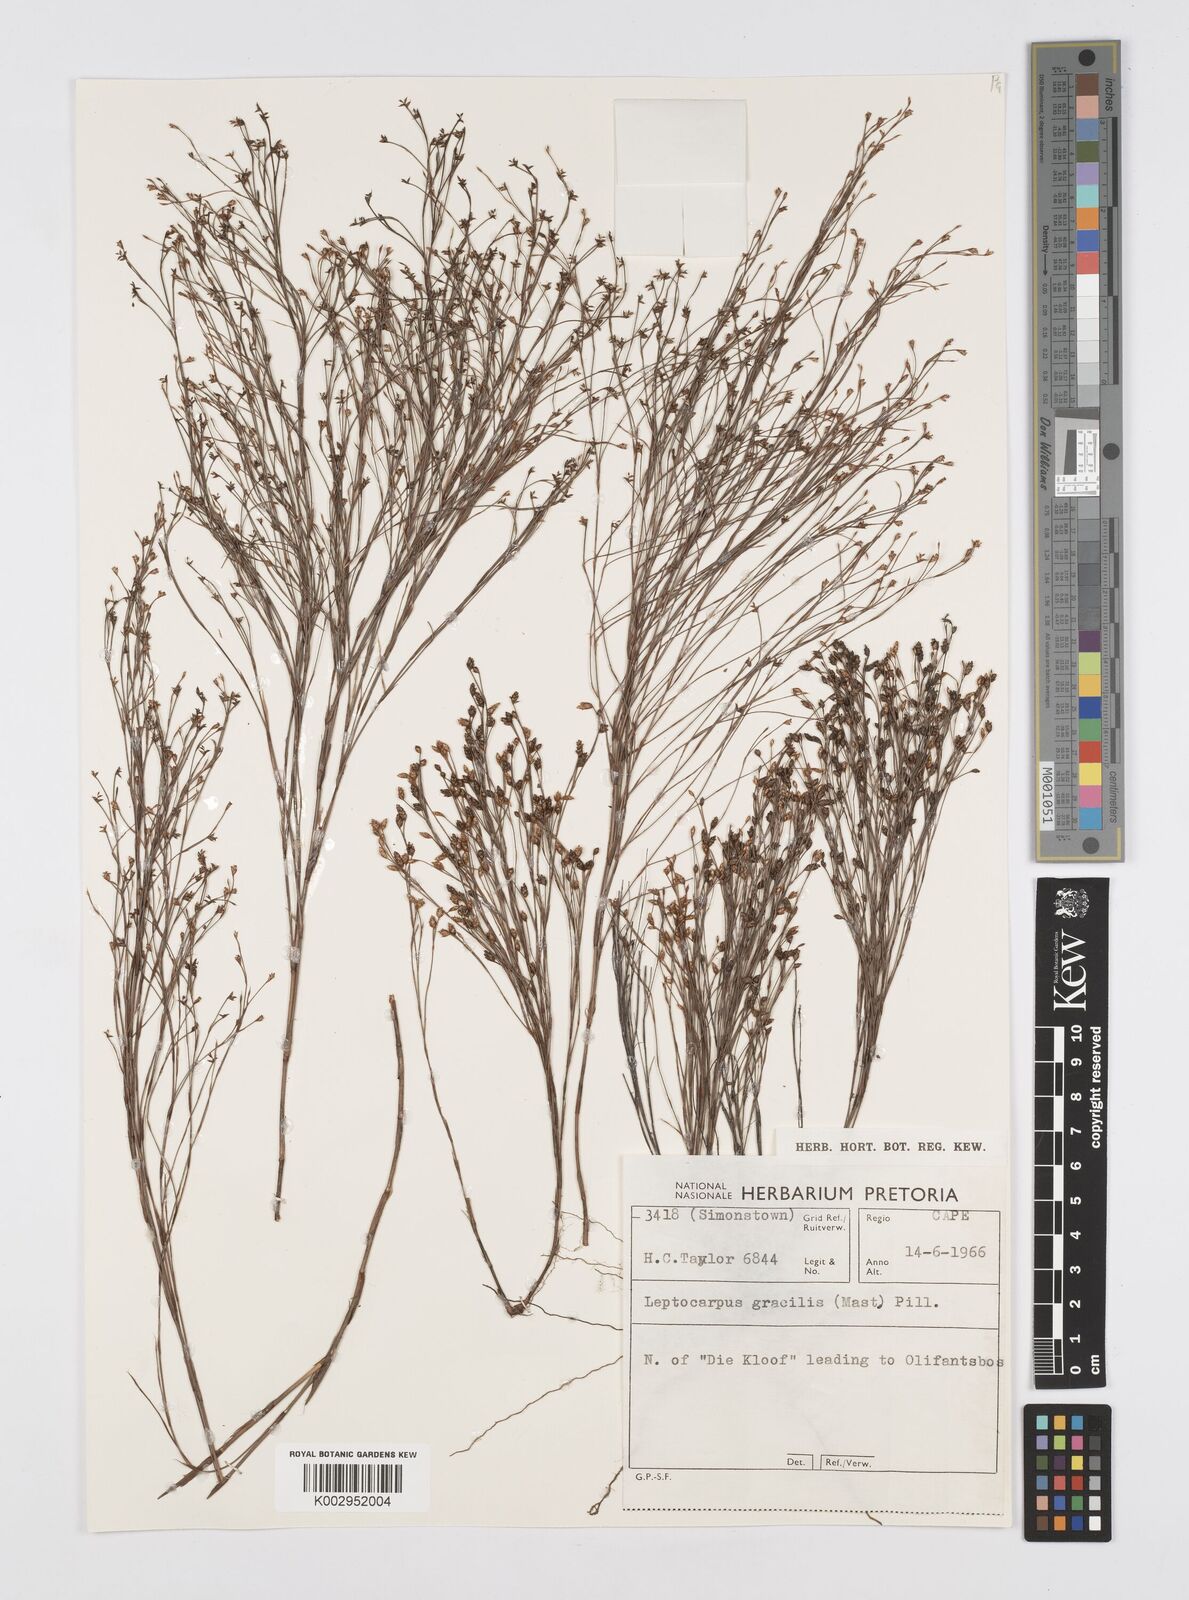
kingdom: Plantae
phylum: Tracheophyta
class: Liliopsida
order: Poales
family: Restionaceae
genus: Baloskion
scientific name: Baloskion gracile
